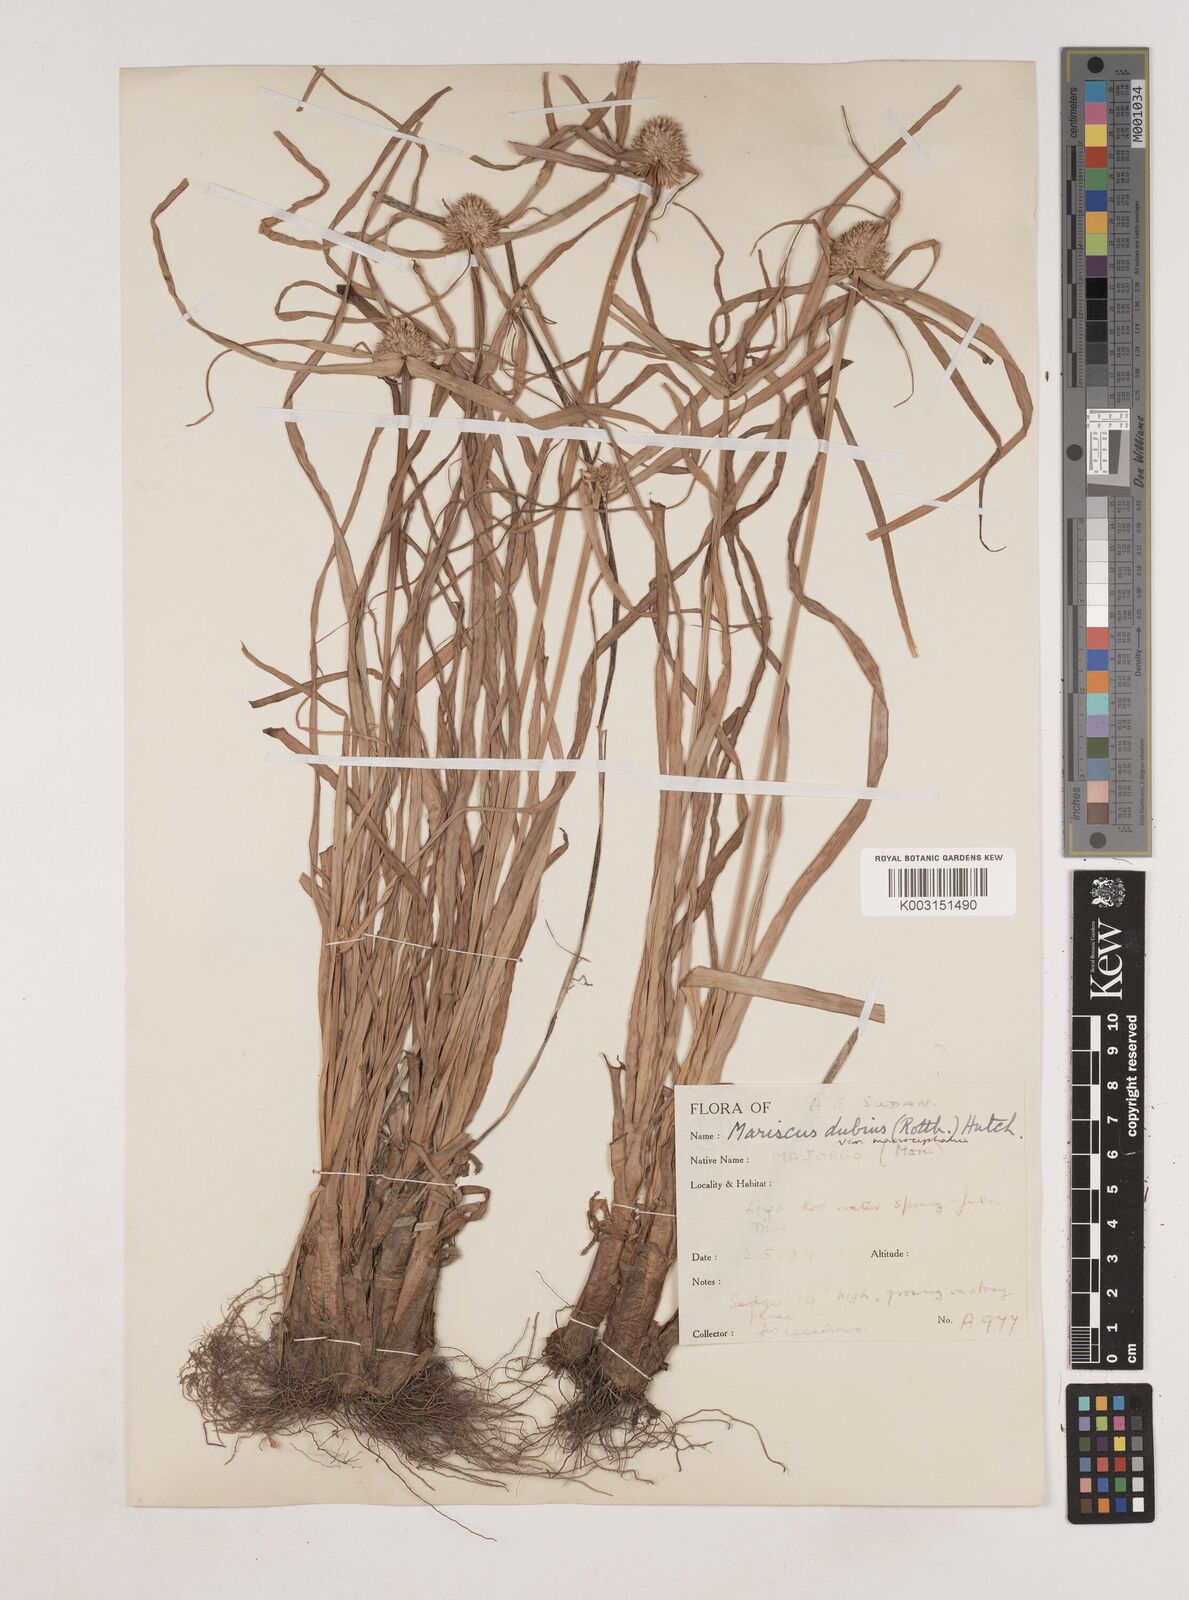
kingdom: Plantae
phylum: Tracheophyta
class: Liliopsida
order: Poales
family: Cyperaceae
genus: Cyperus
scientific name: Cyperus dubius
